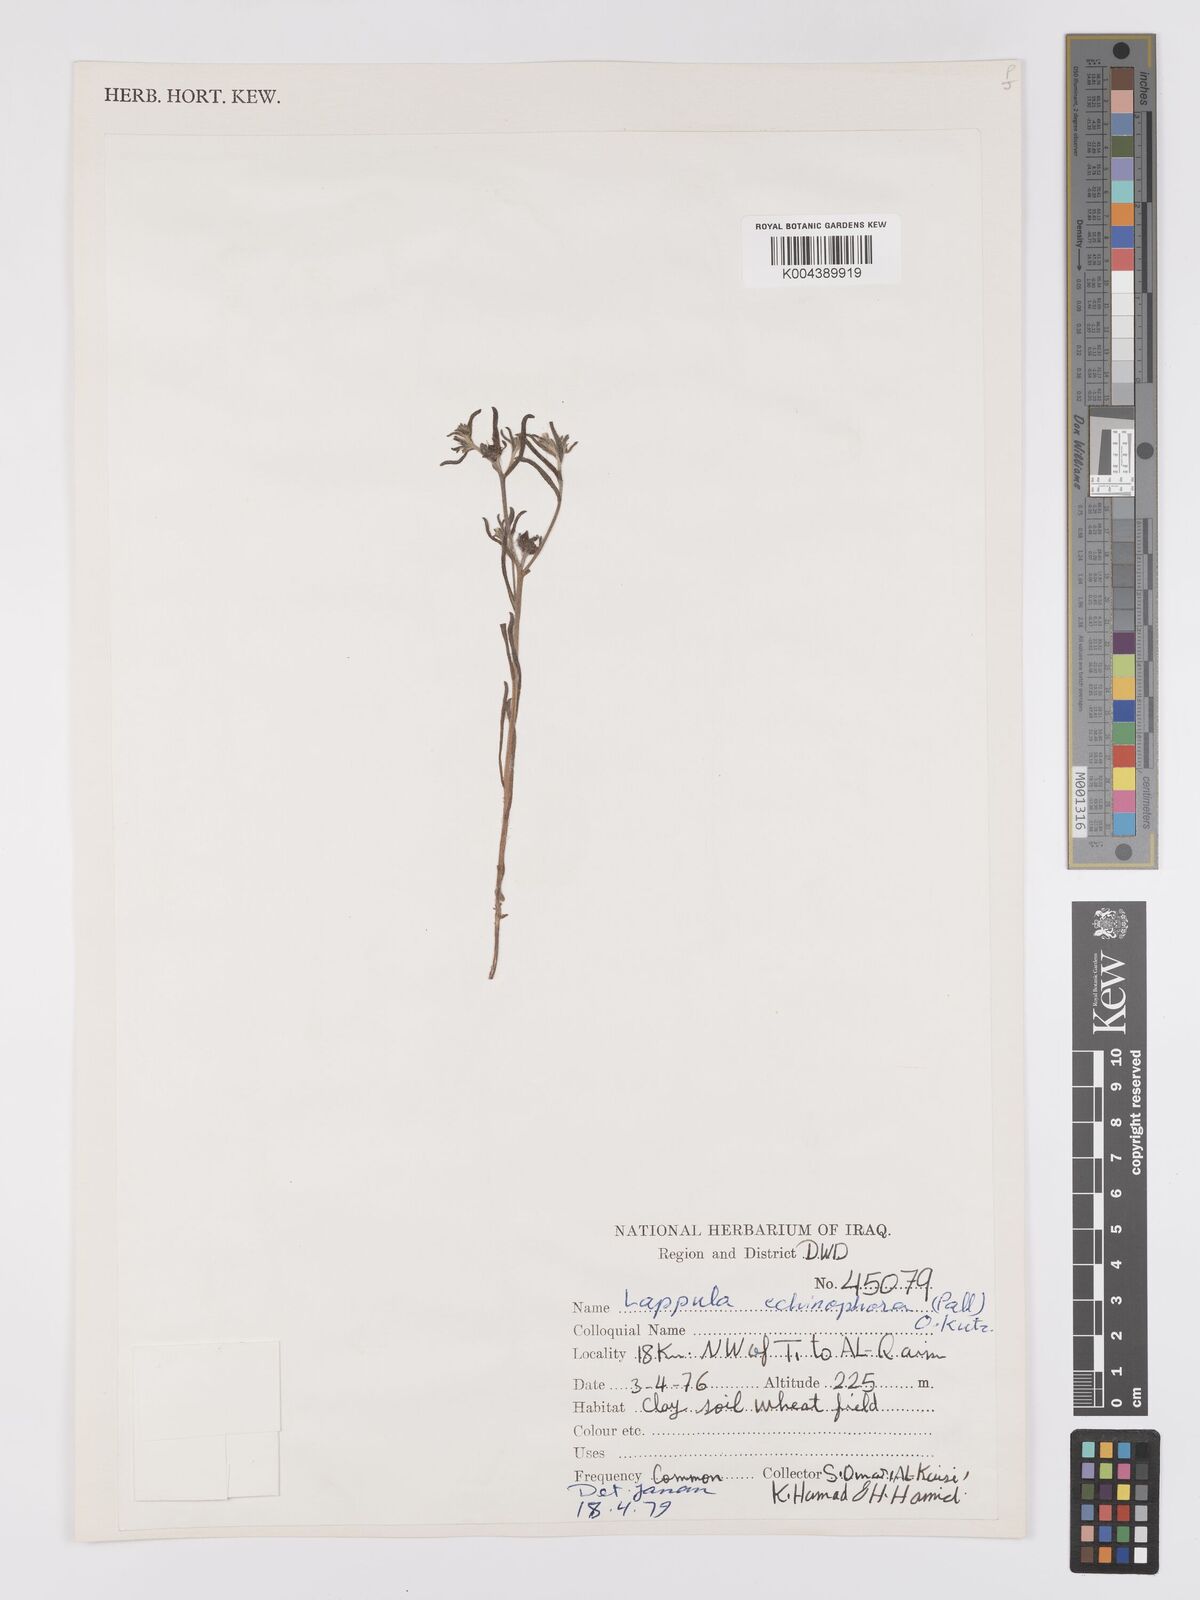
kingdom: Plantae
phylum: Tracheophyta
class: Magnoliopsida
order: Boraginales
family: Boraginaceae
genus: Heterocaryum
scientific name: Heterocaryum echinophorum
